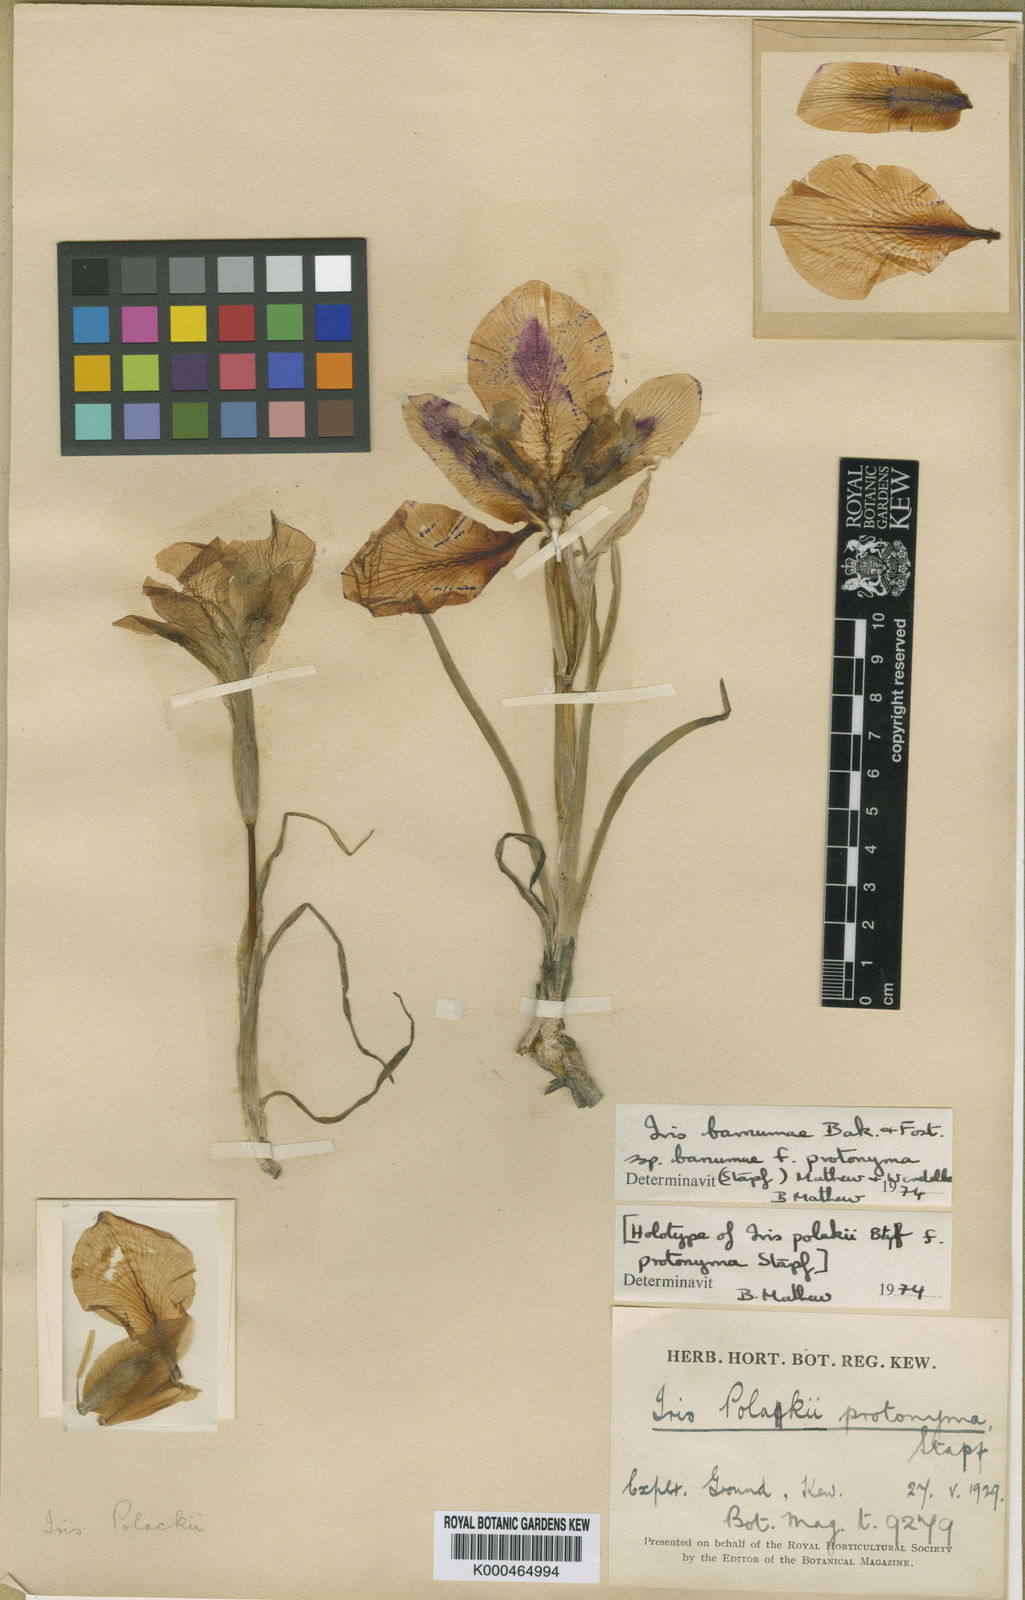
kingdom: Plantae
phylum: Tracheophyta
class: Liliopsida
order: Asparagales
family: Iridaceae
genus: Iris
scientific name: Iris polakii
